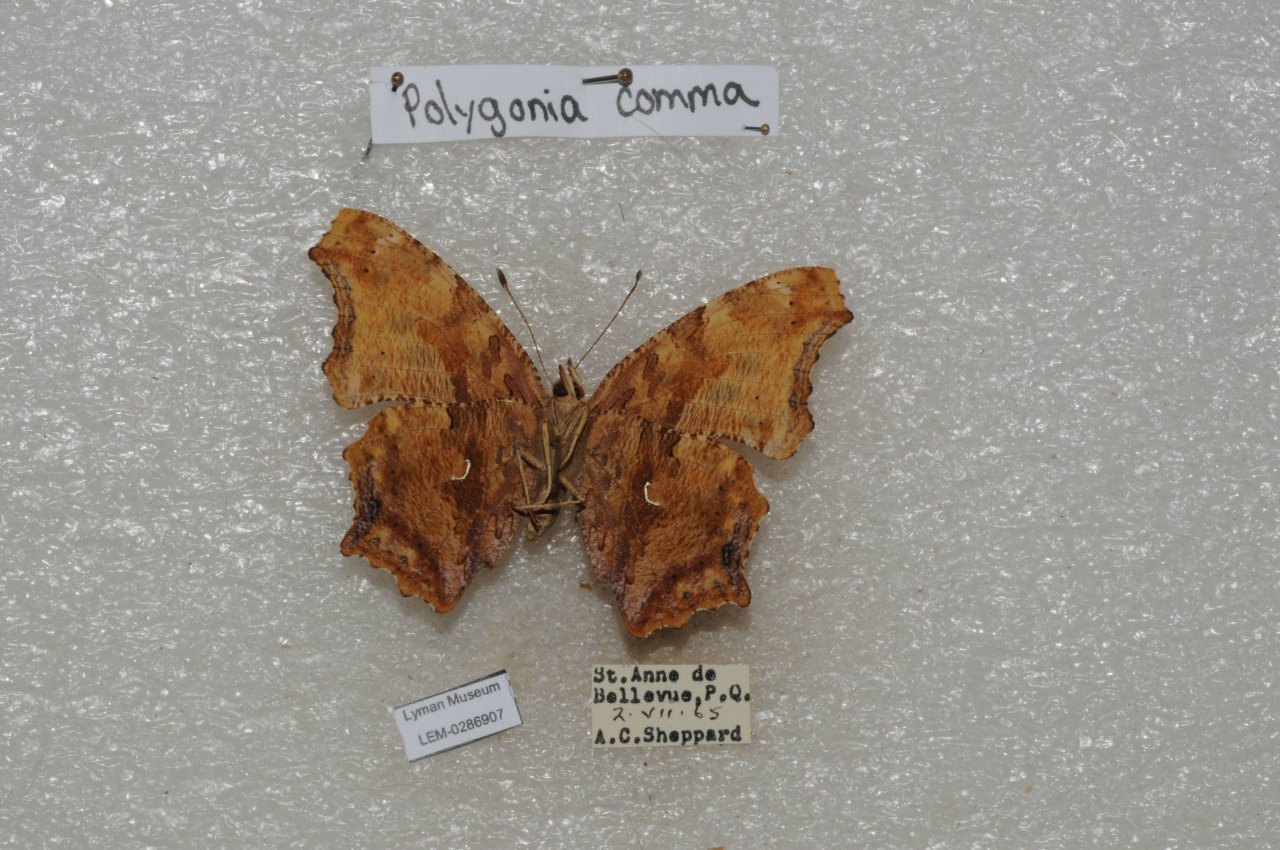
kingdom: Animalia
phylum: Arthropoda
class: Insecta
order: Lepidoptera
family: Nymphalidae
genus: Polygonia
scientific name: Polygonia comma
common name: Eastern Comma
